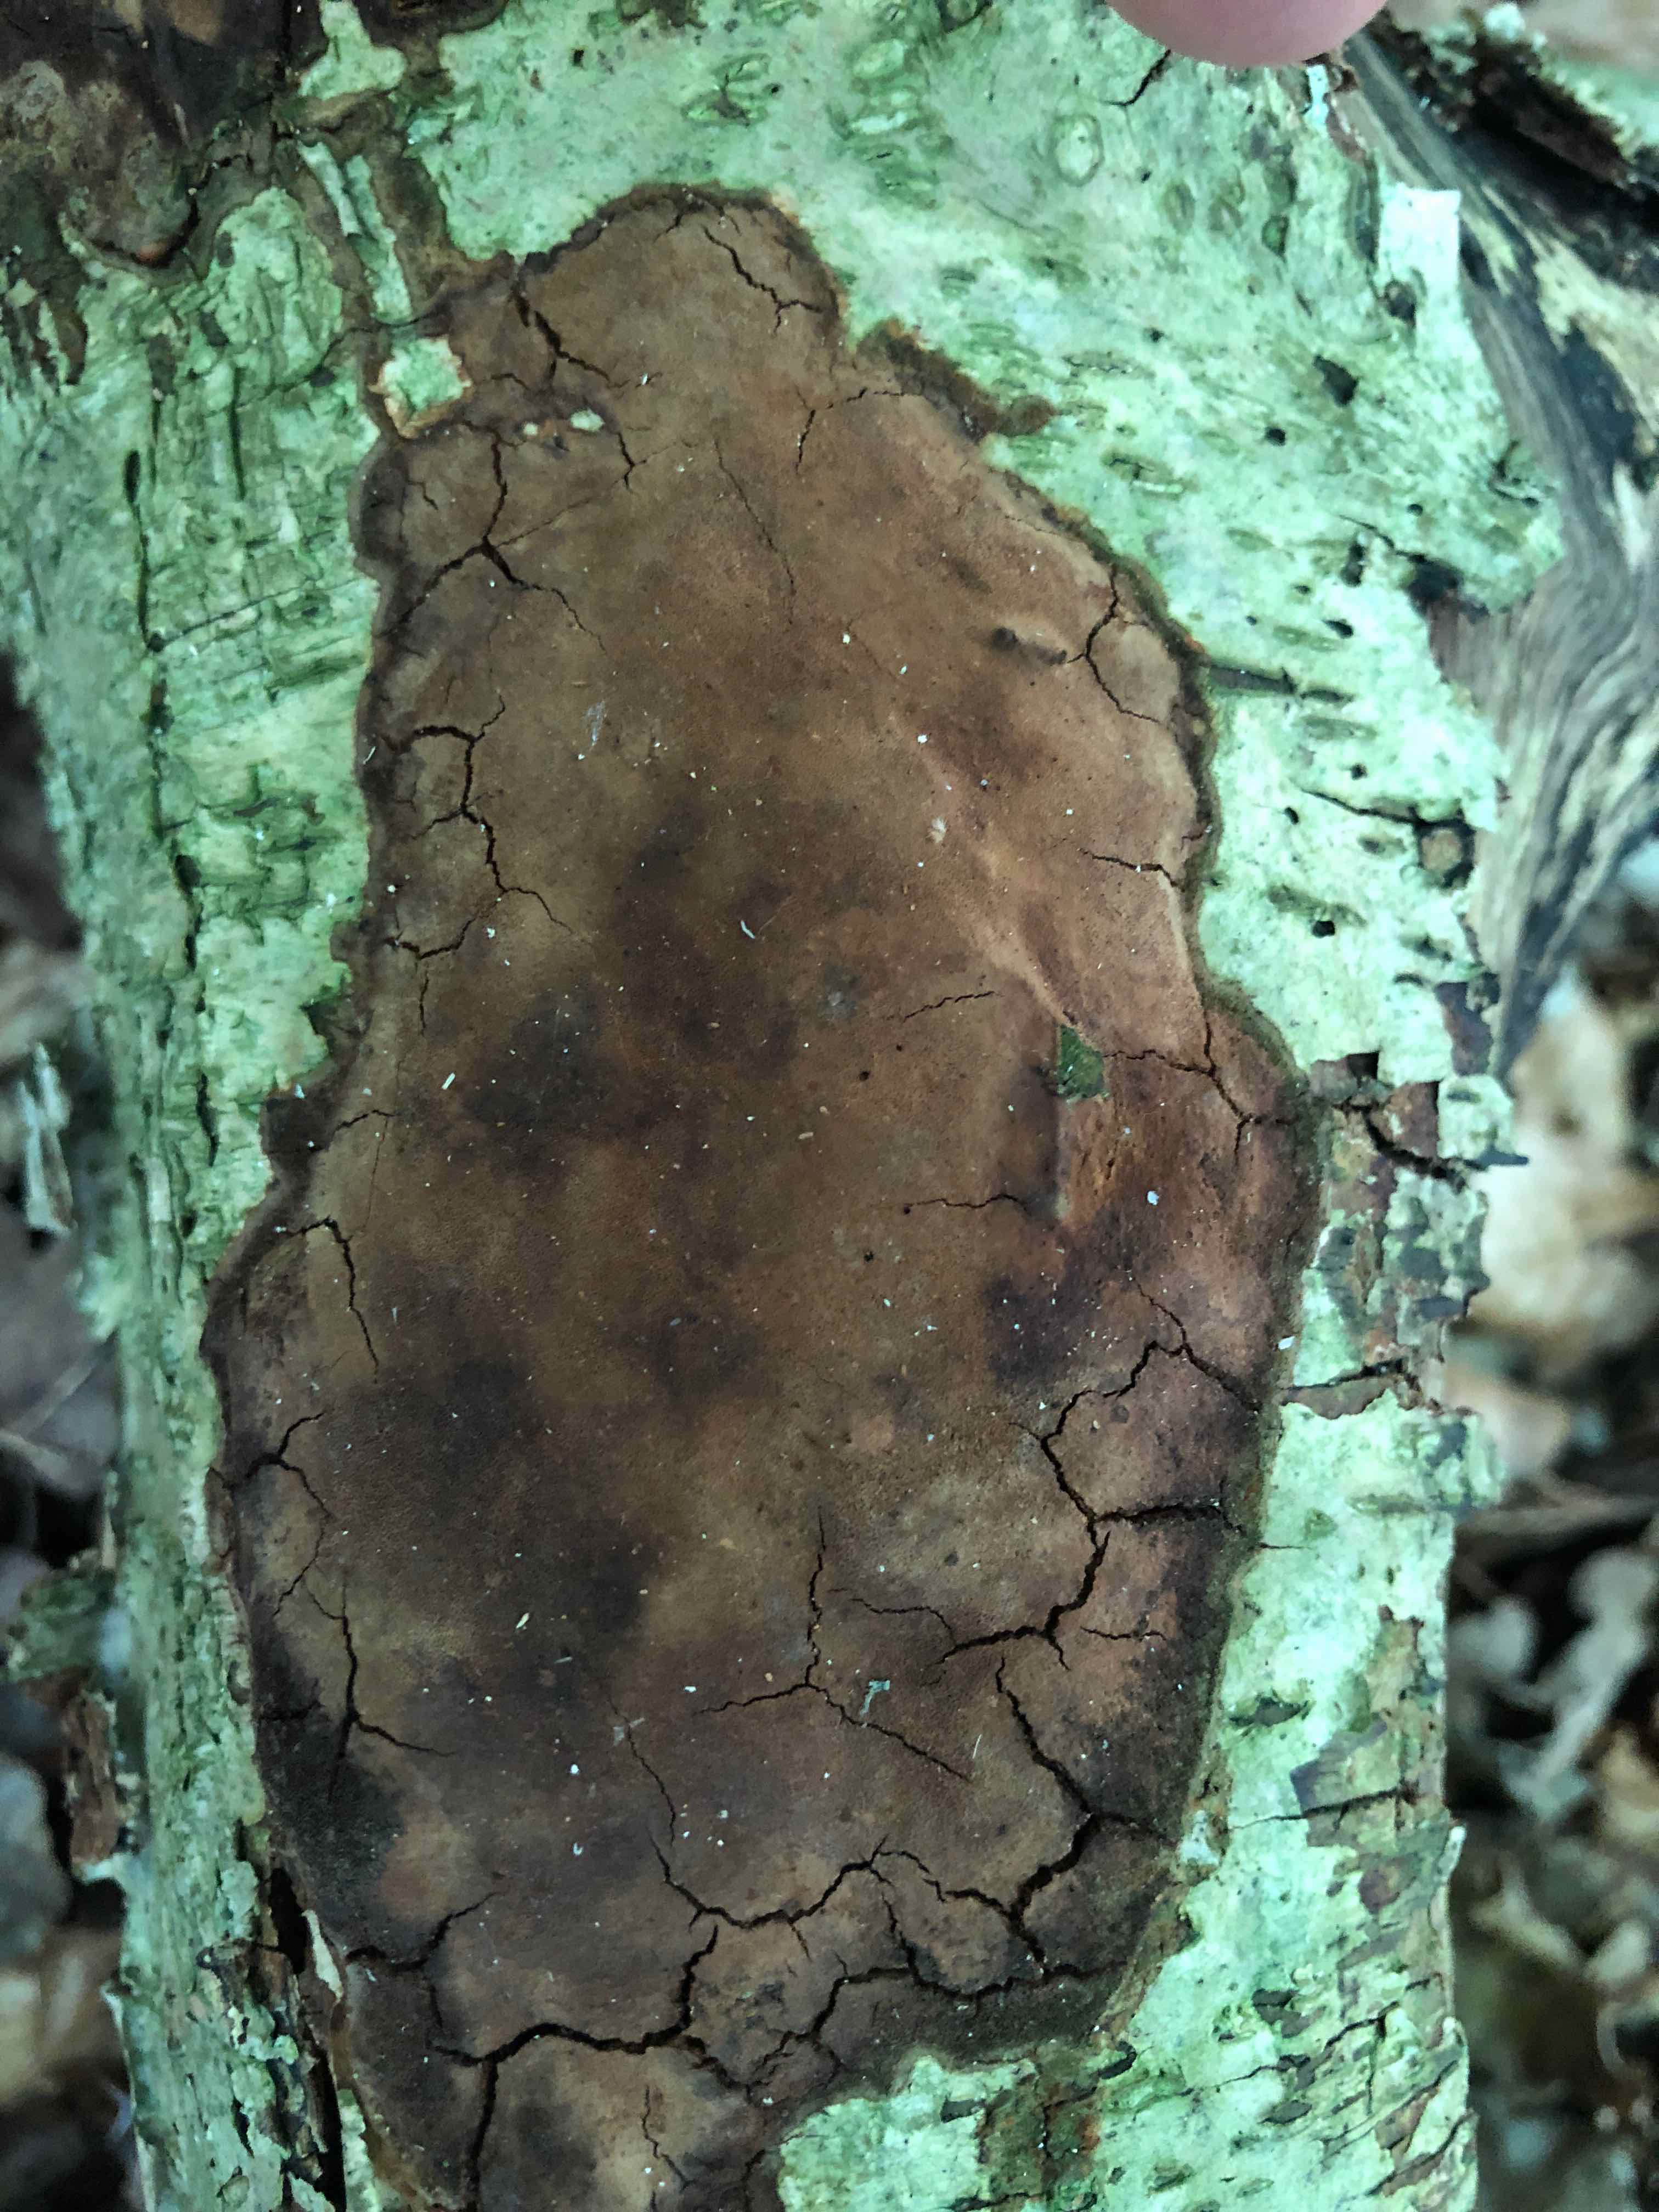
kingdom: Fungi
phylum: Basidiomycota
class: Agaricomycetes
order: Hymenochaetales
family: Hymenochaetaceae
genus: Fomitiporia
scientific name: Fomitiporia punctata
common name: pude-ildporesvamp
